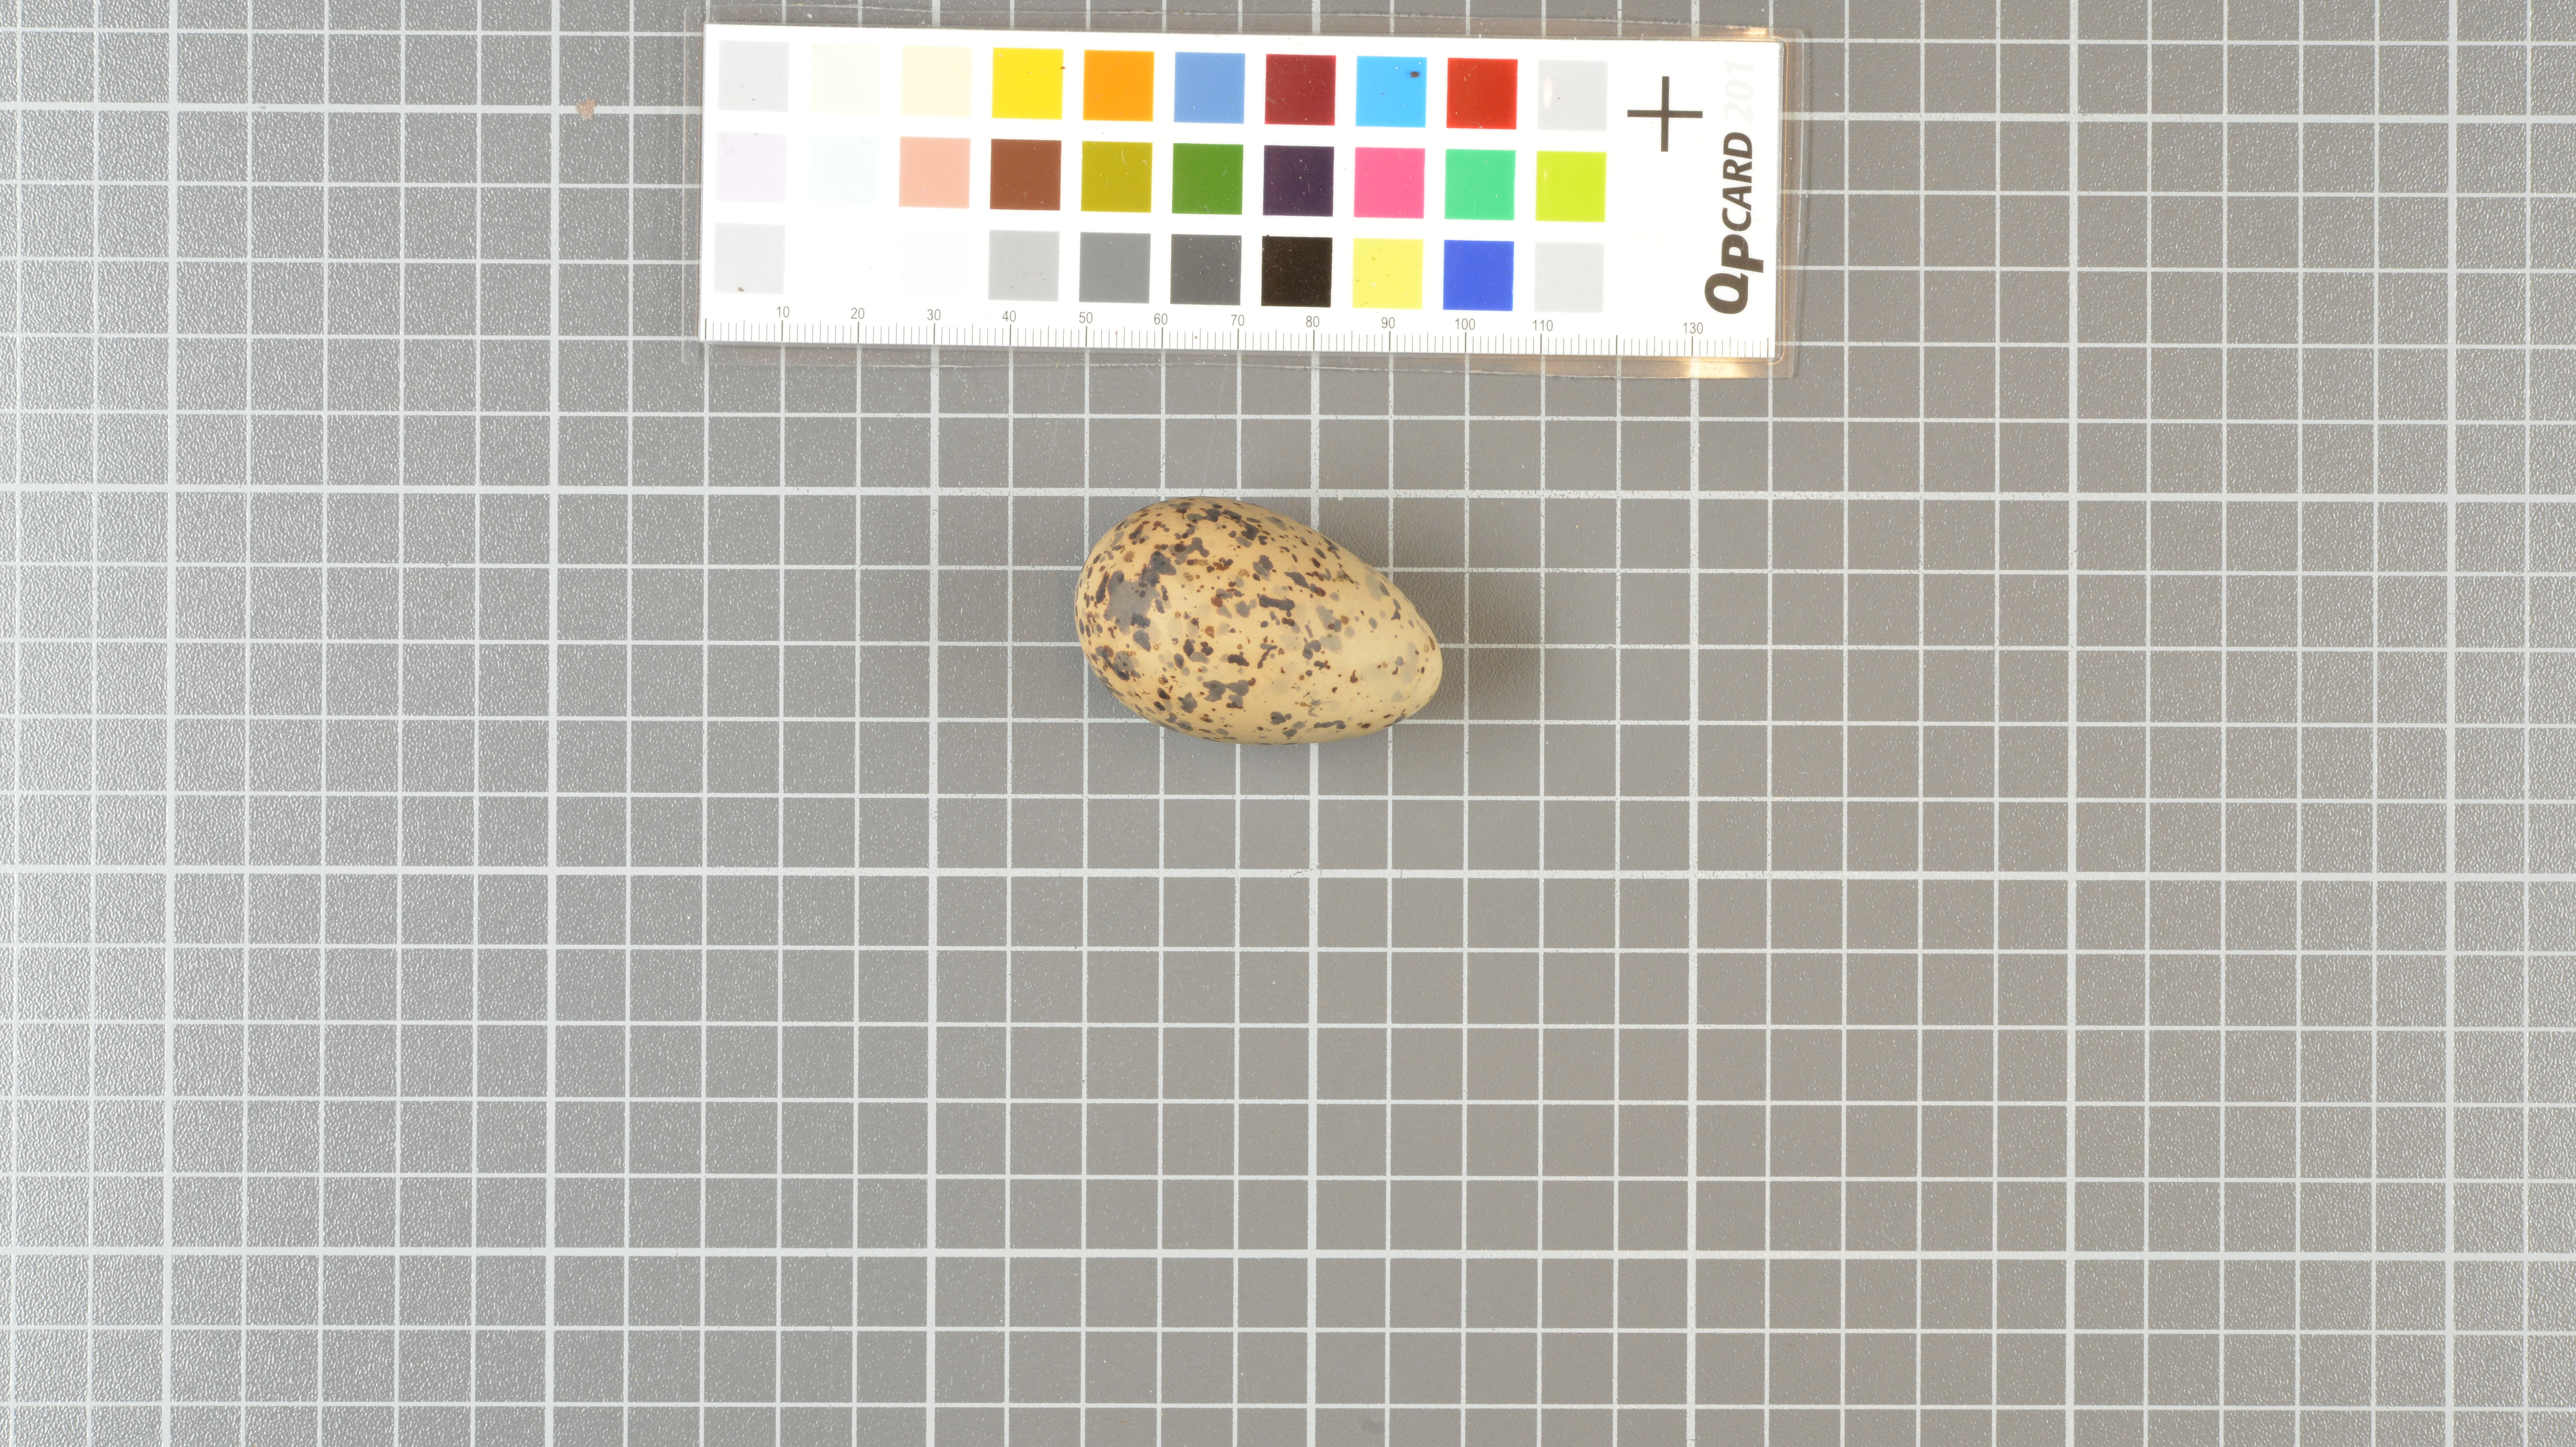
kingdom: Animalia
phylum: Chordata
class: Aves
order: Charadriiformes
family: Laridae
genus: Sterna
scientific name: Sterna vittata
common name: Antarctic tern
